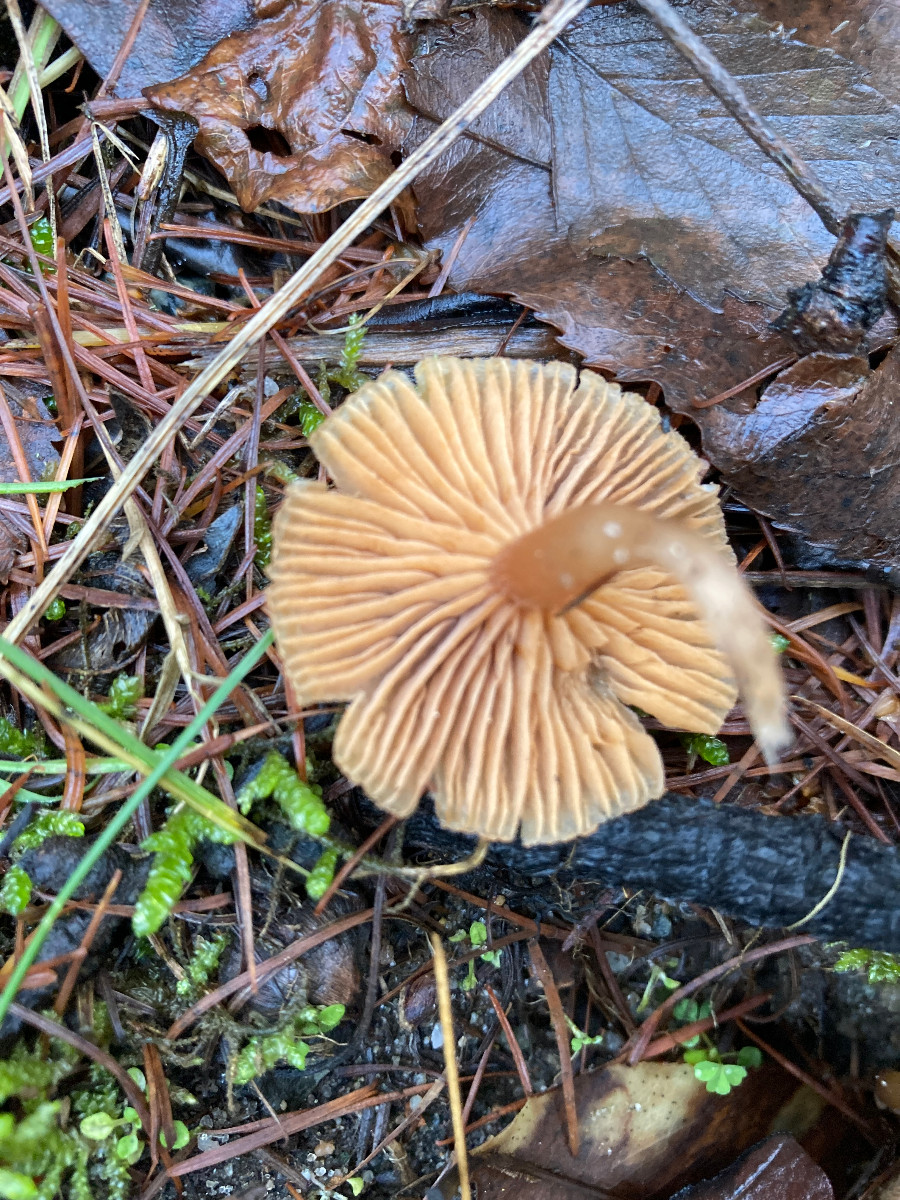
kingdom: Fungi
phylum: Basidiomycota
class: Agaricomycetes
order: Agaricales
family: Tubariaceae
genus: Tubaria
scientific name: Tubaria furfuracea
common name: kliddet fnughat
